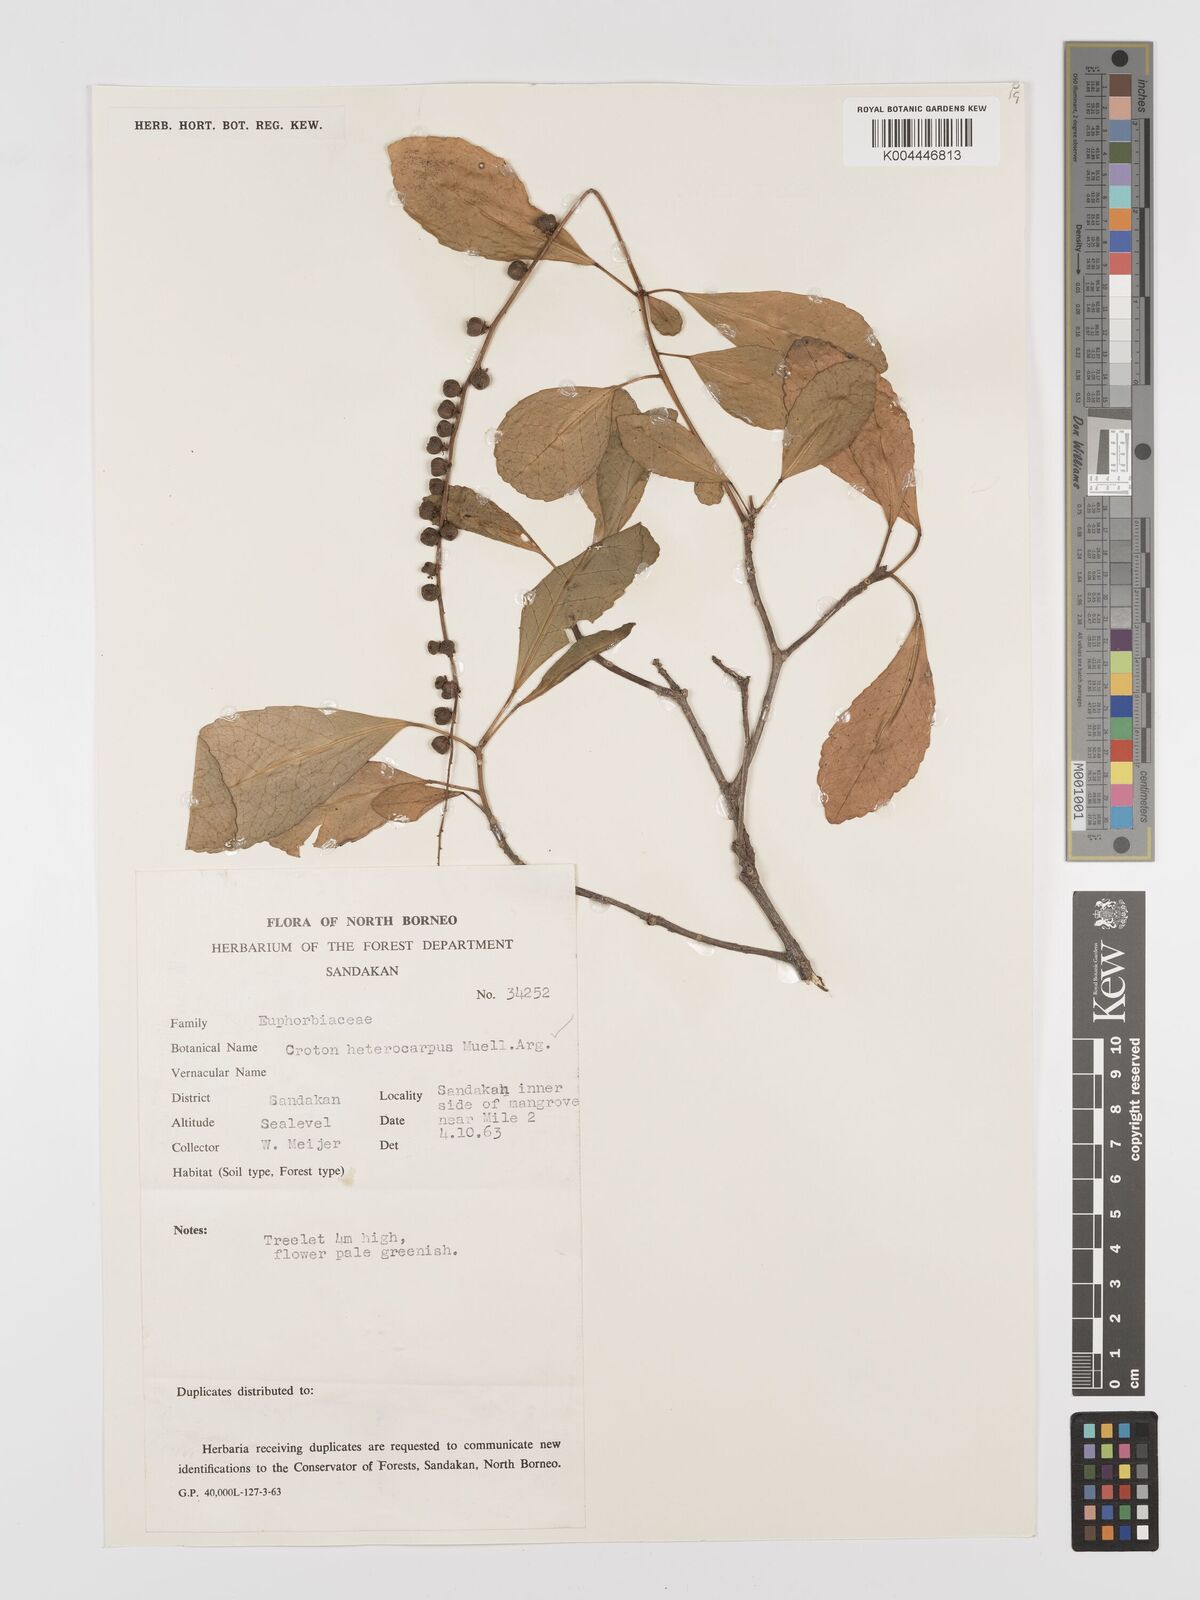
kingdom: Plantae
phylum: Tracheophyta
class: Magnoliopsida
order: Malpighiales
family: Euphorbiaceae
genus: Croton
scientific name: Croton heterocarpus
